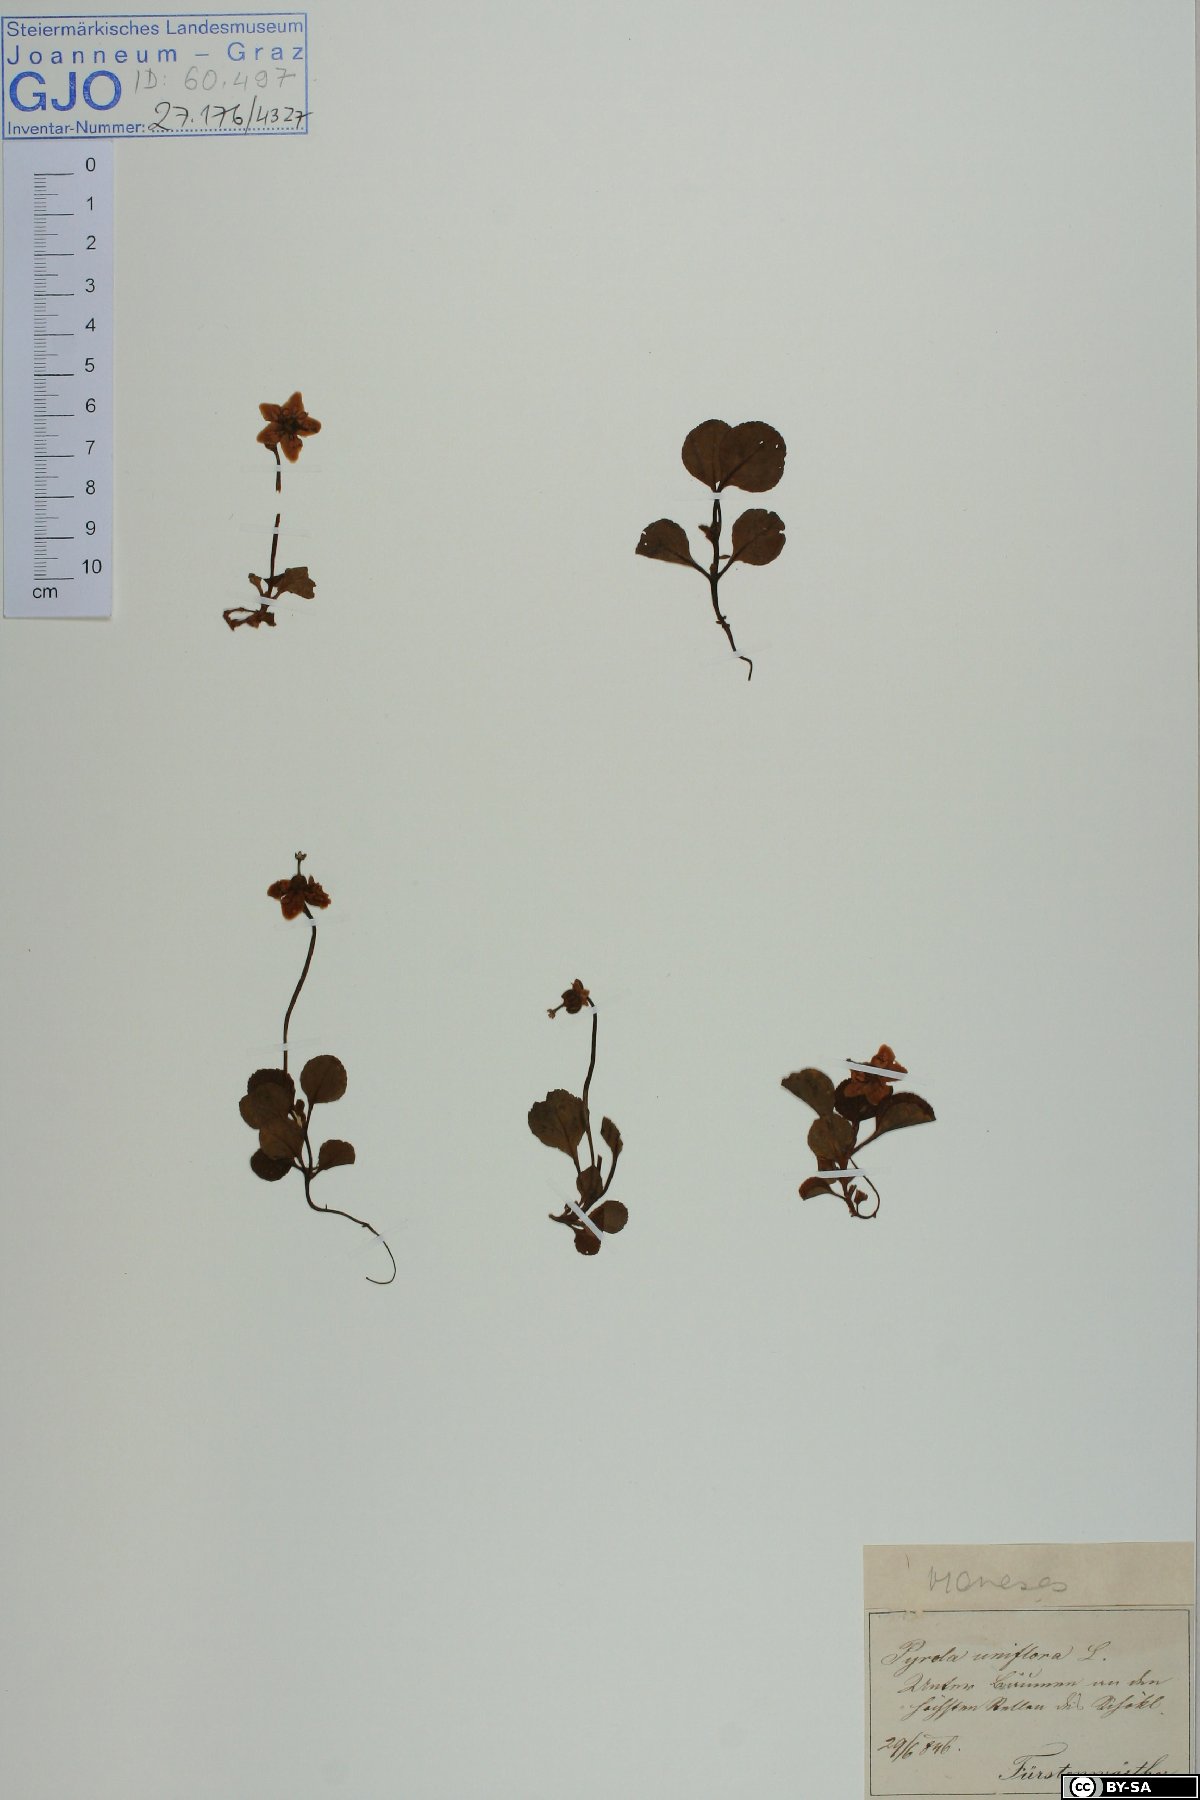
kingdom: Plantae
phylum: Tracheophyta
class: Magnoliopsida
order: Ericales
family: Ericaceae
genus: Moneses
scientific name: Moneses uniflora
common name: One-flowered wintergreen
